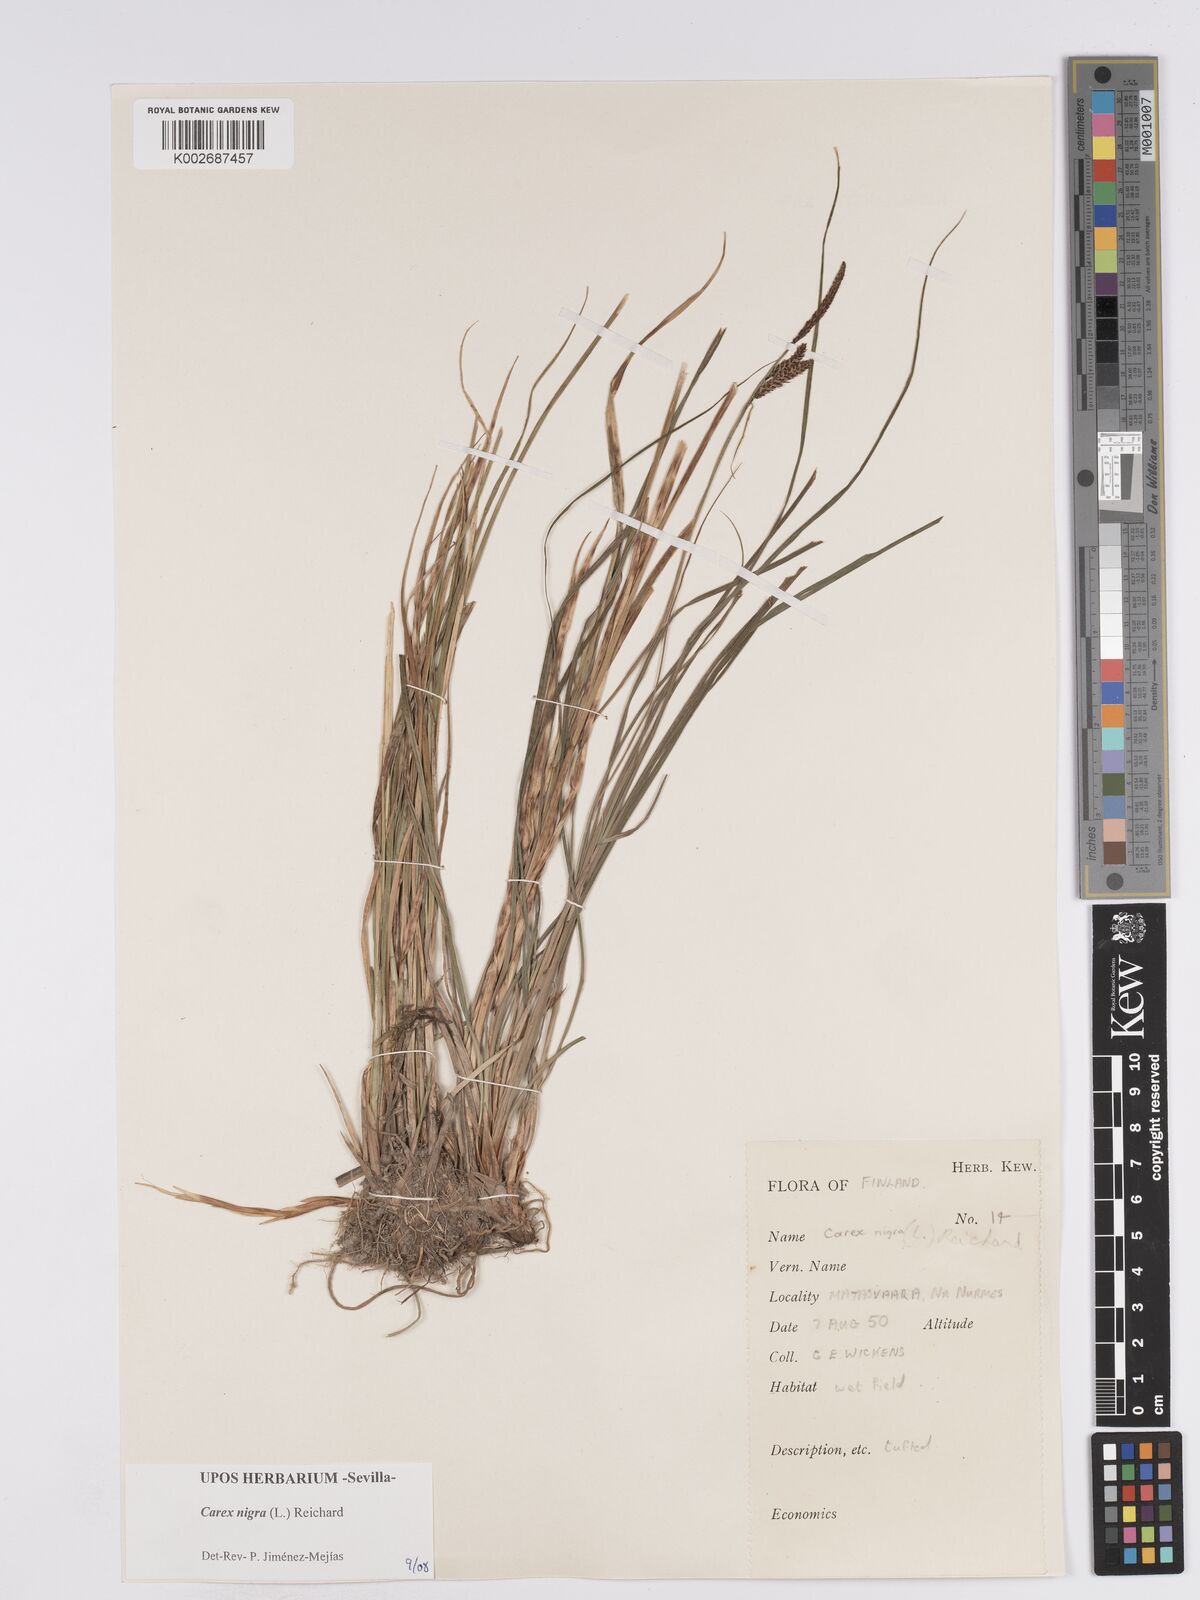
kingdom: Plantae
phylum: Tracheophyta
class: Liliopsida
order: Poales
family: Cyperaceae
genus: Carex
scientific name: Carex nigra
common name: Common sedge
